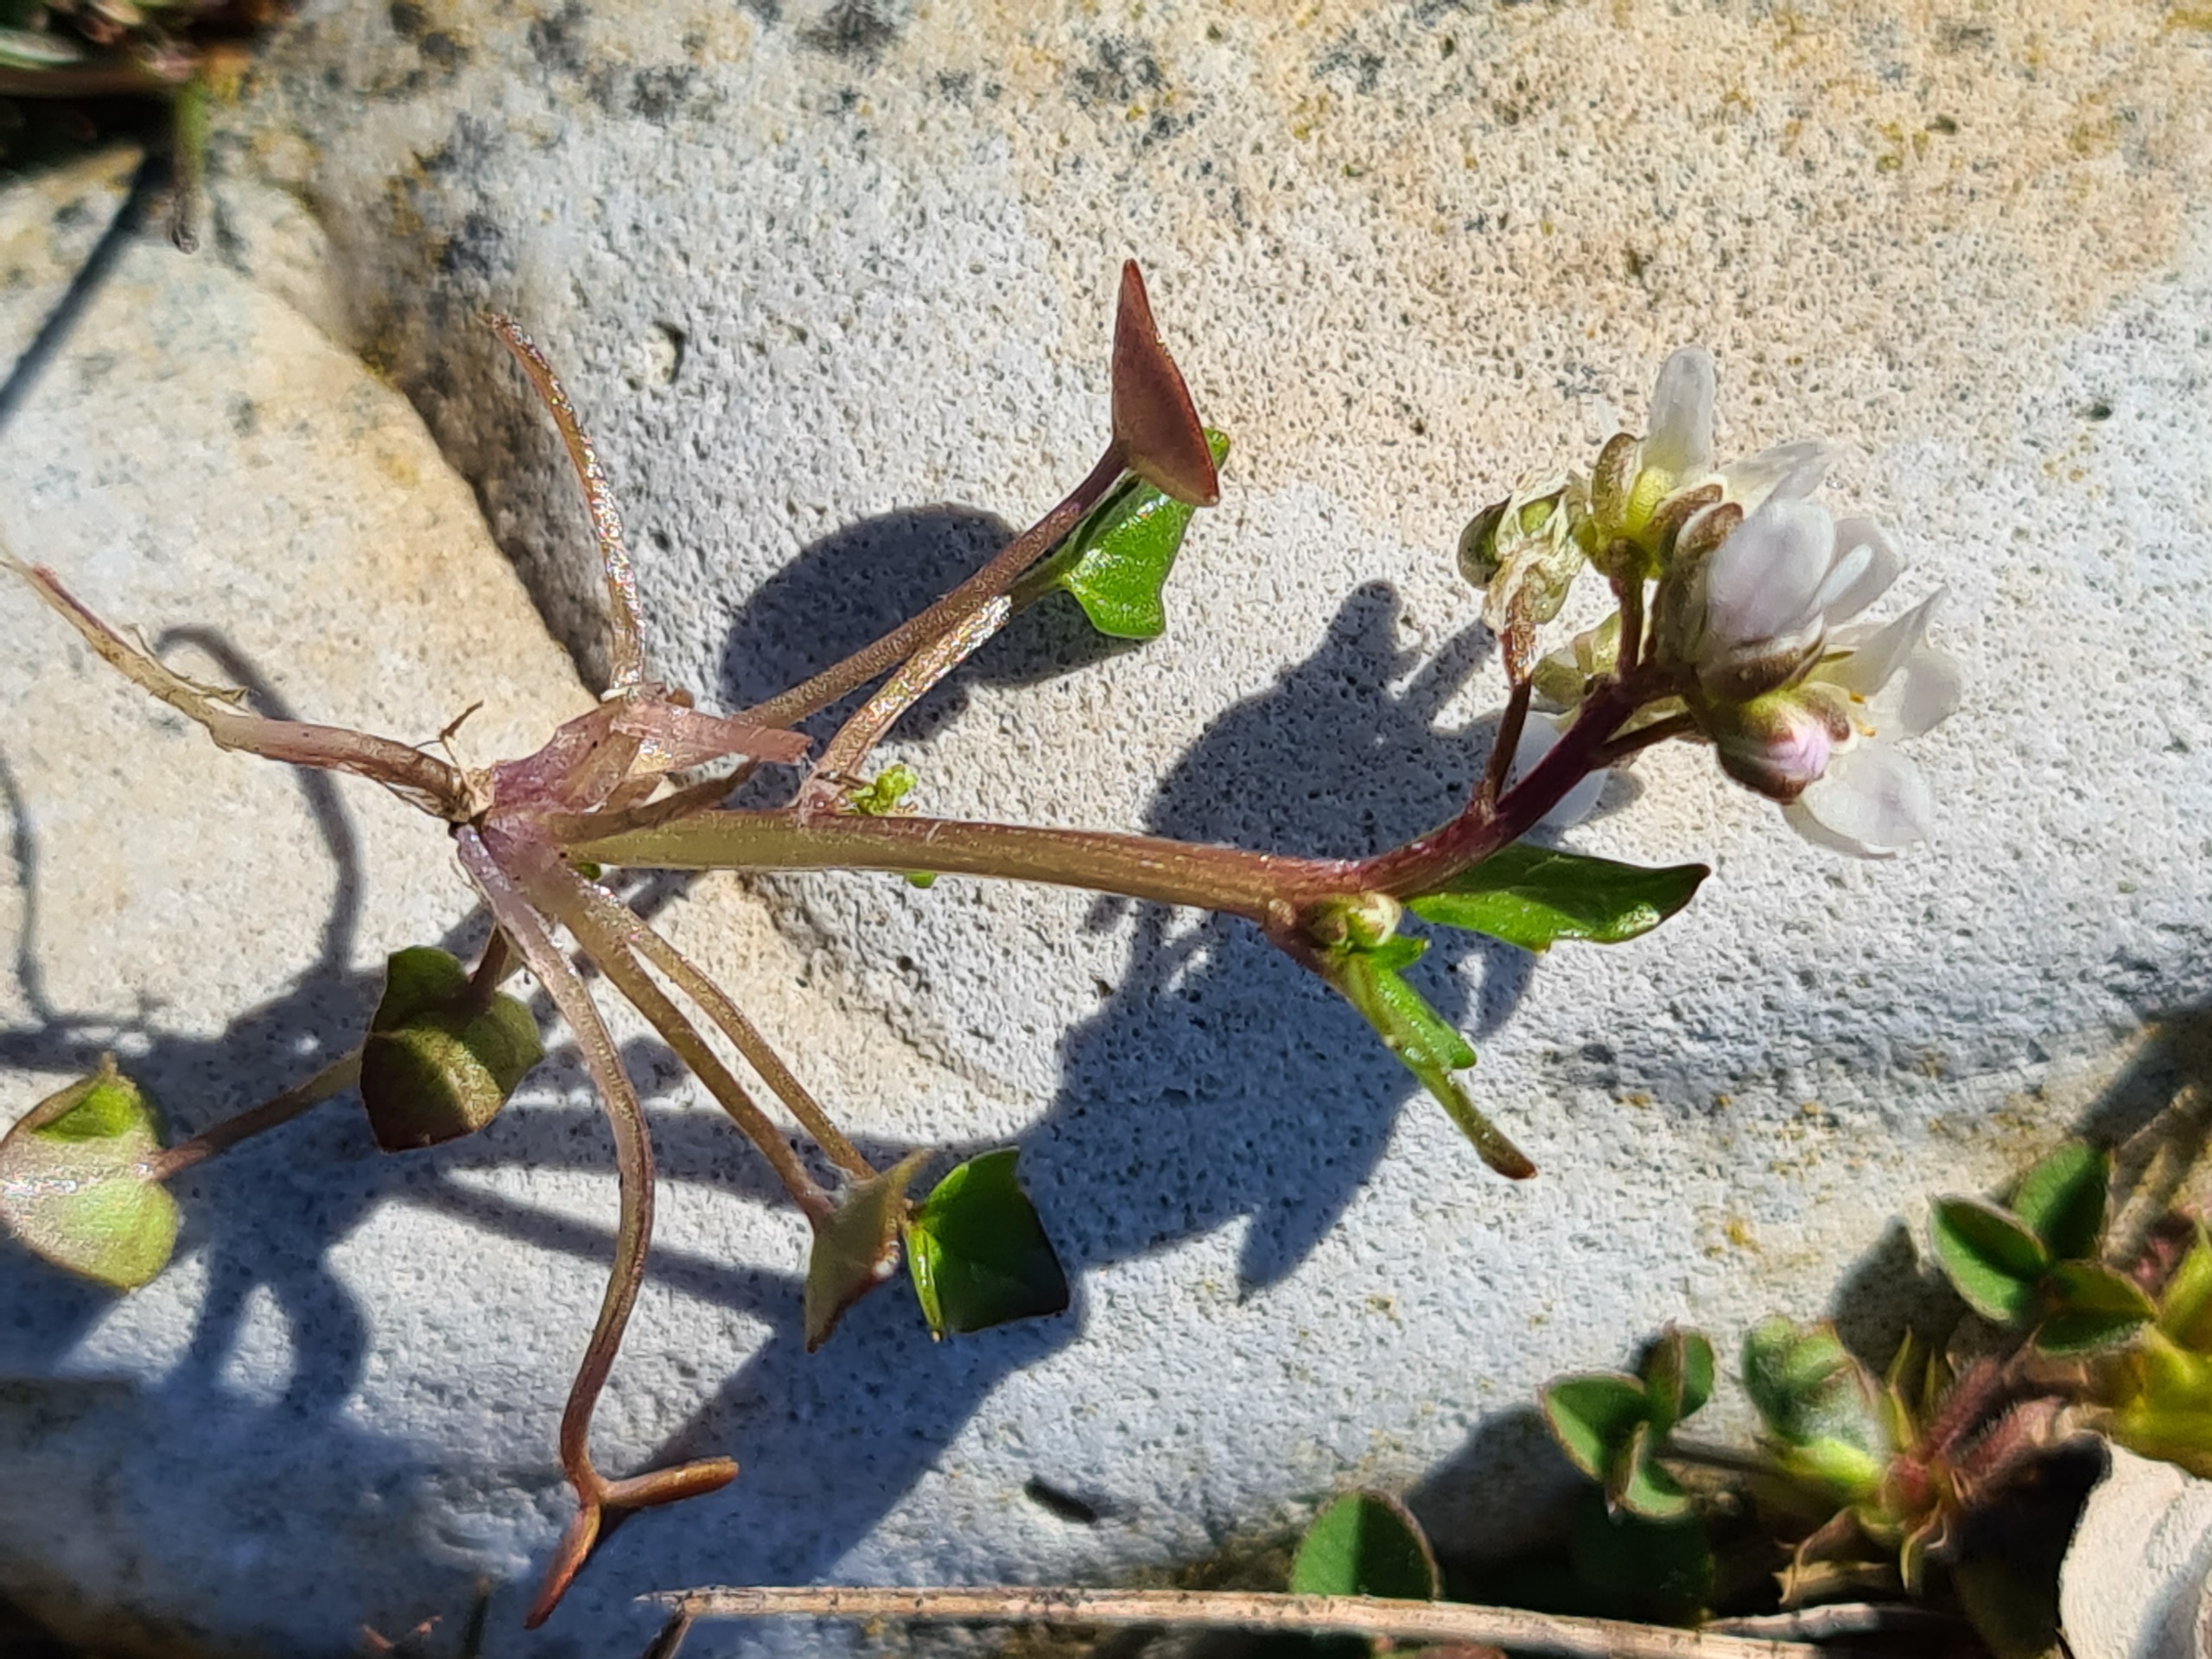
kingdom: Plantae
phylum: Tracheophyta
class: Magnoliopsida
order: Brassicales
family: Brassicaceae
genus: Cochlearia
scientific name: Cochlearia danica
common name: Dansk kokleare
